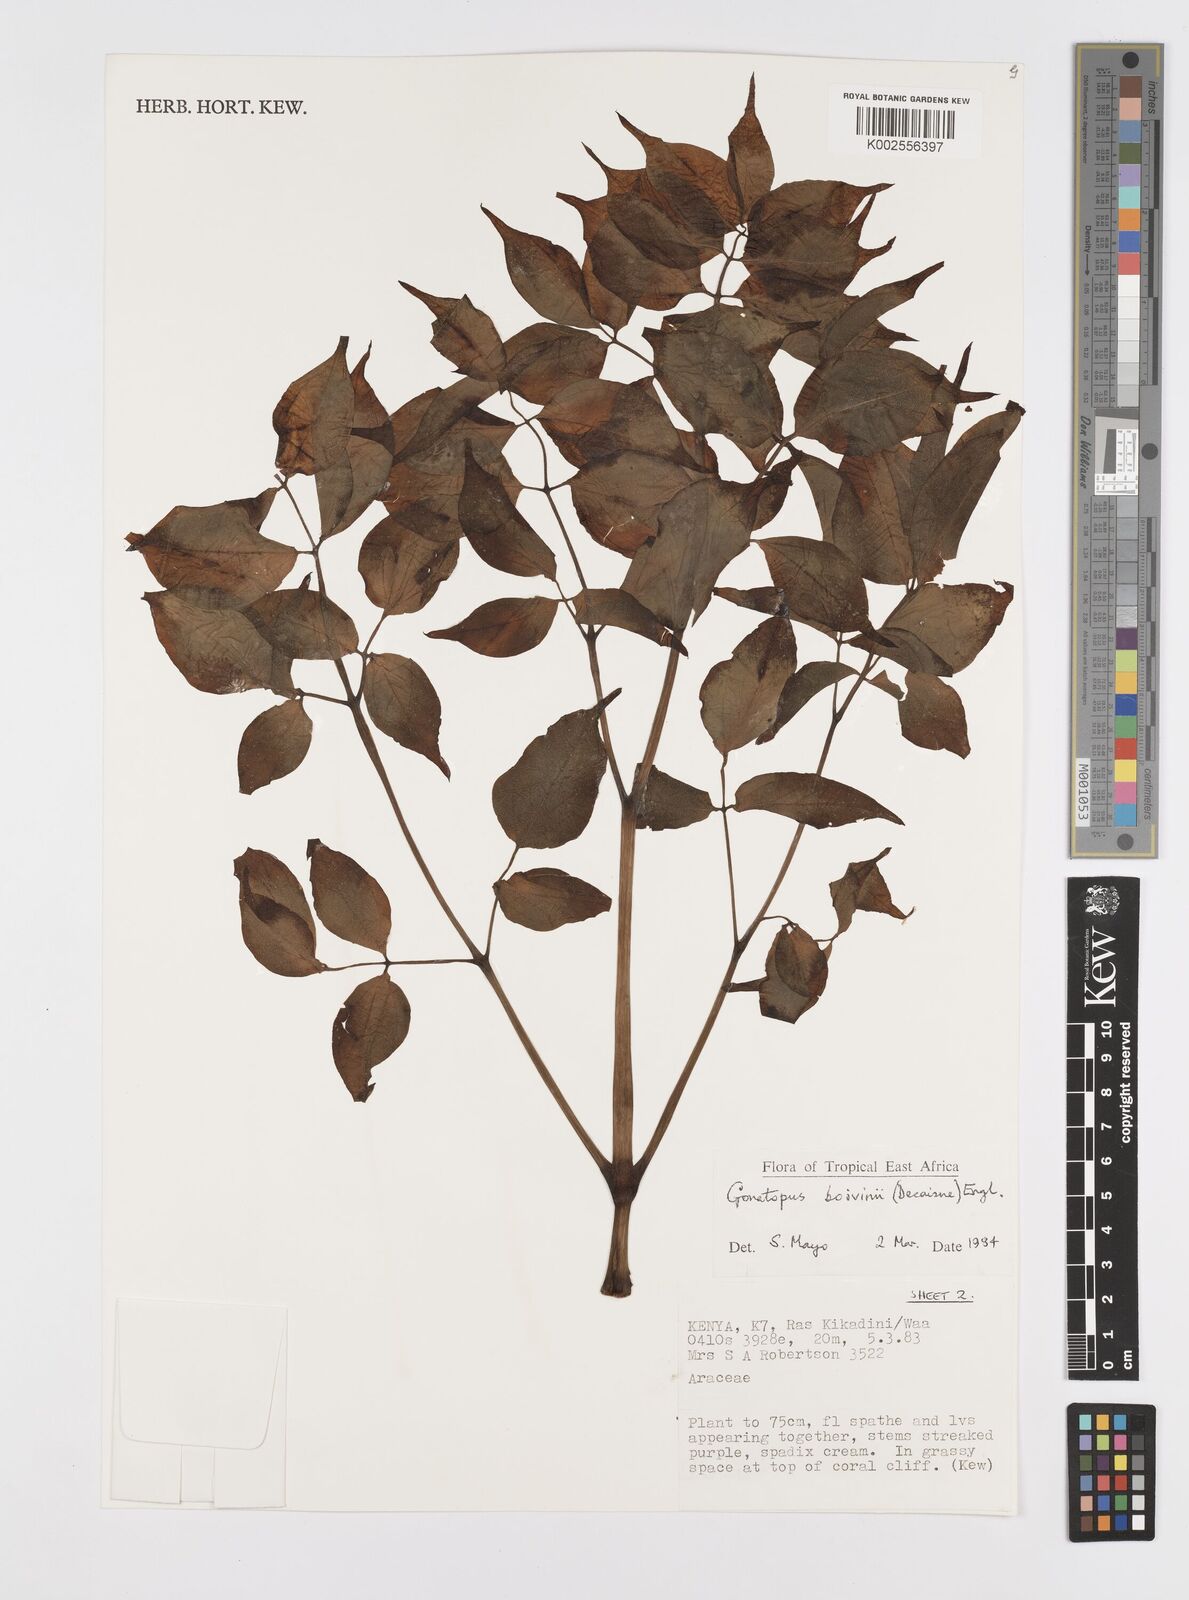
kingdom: Plantae
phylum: Tracheophyta
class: Liliopsida
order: Alismatales
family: Araceae
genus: Gonatopus
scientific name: Gonatopus boivinii
